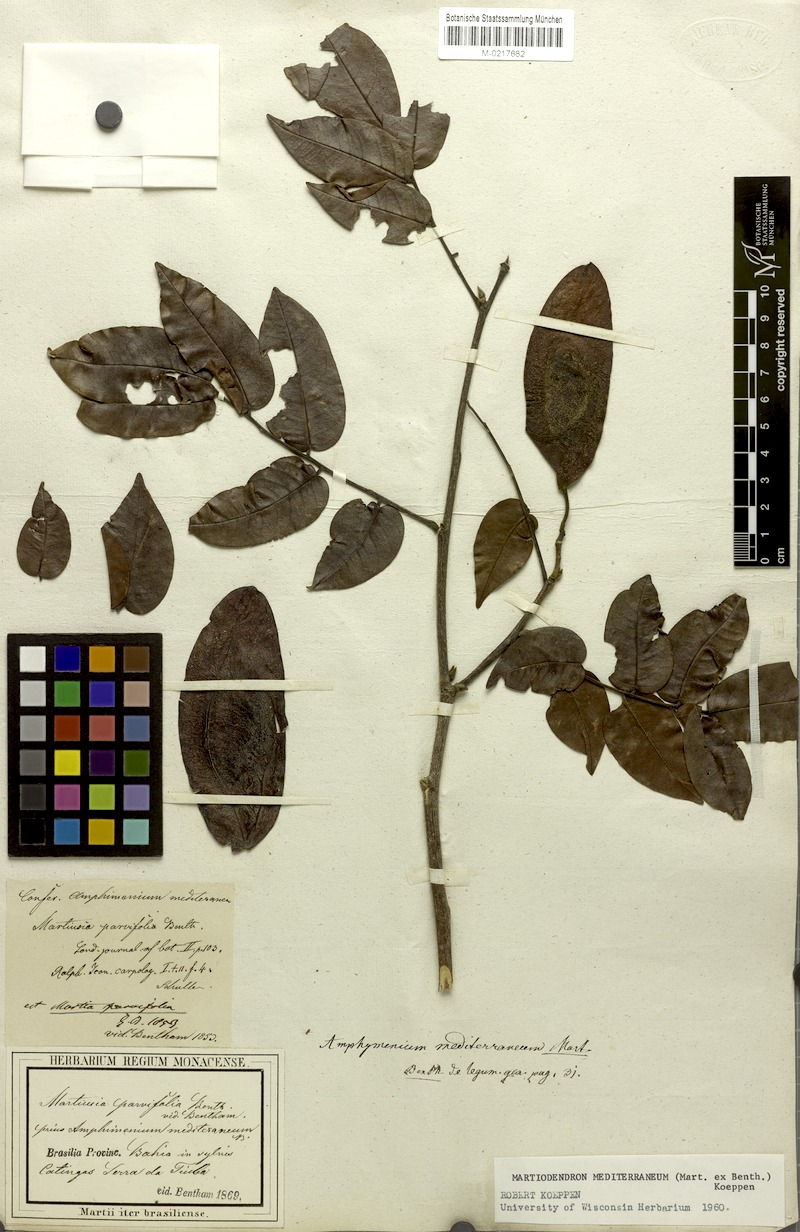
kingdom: Plantae
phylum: Tracheophyta
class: Magnoliopsida
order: Fabales
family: Fabaceae
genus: Martiodendron
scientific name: Martiodendron mediterraneum
